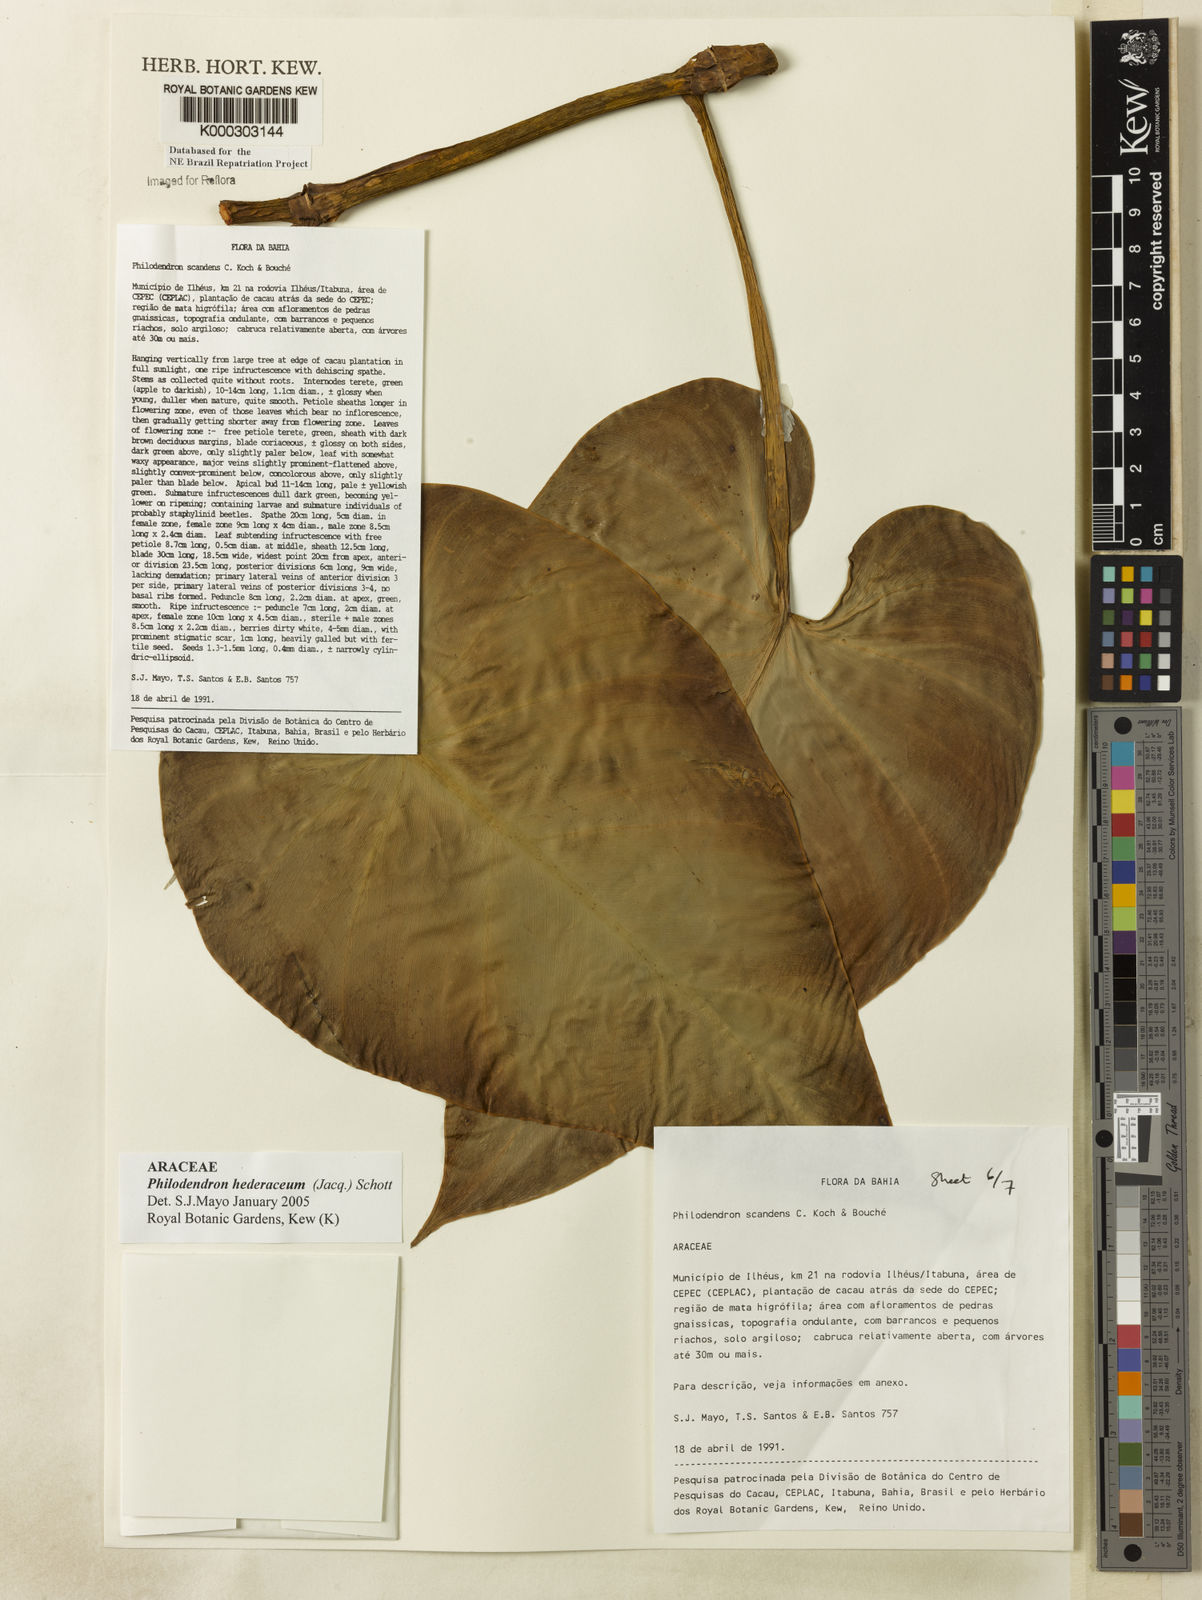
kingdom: Plantae
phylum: Tracheophyta
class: Liliopsida
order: Alismatales
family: Araceae
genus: Philodendron
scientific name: Philodendron hederaceum
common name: Vilevine
